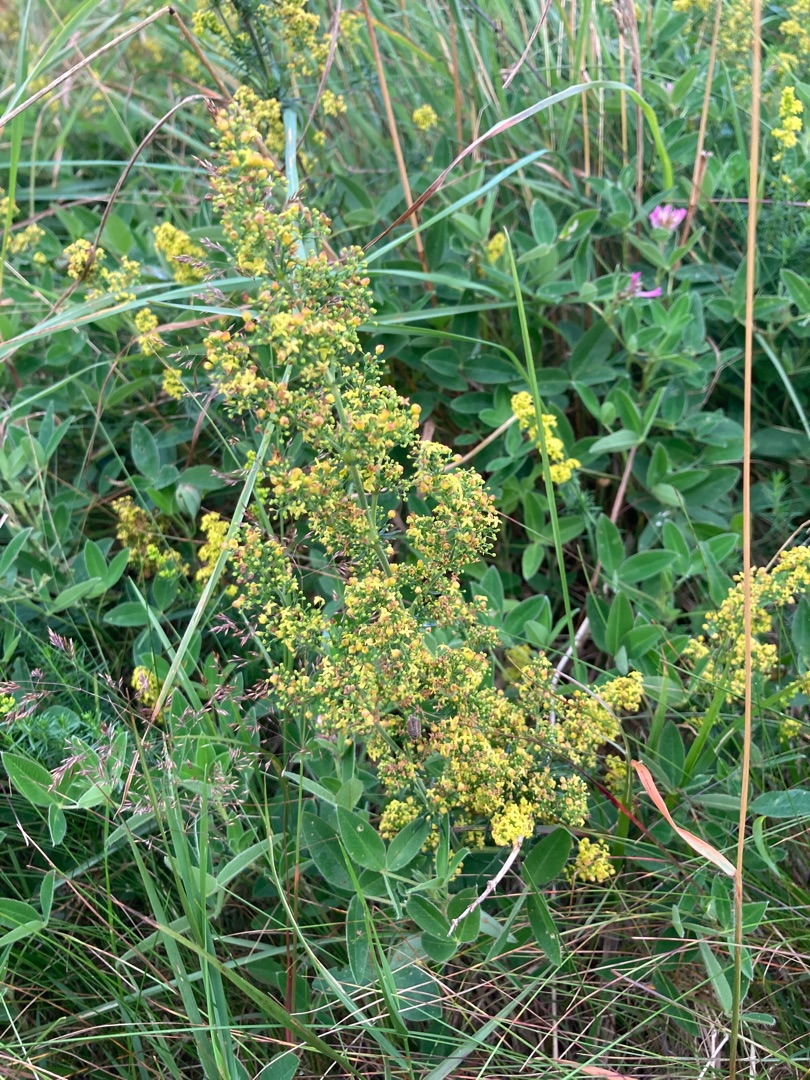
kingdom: Plantae
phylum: Tracheophyta
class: Magnoliopsida
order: Gentianales
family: Rubiaceae
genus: Galium
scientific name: Galium verum
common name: Gul snerre
